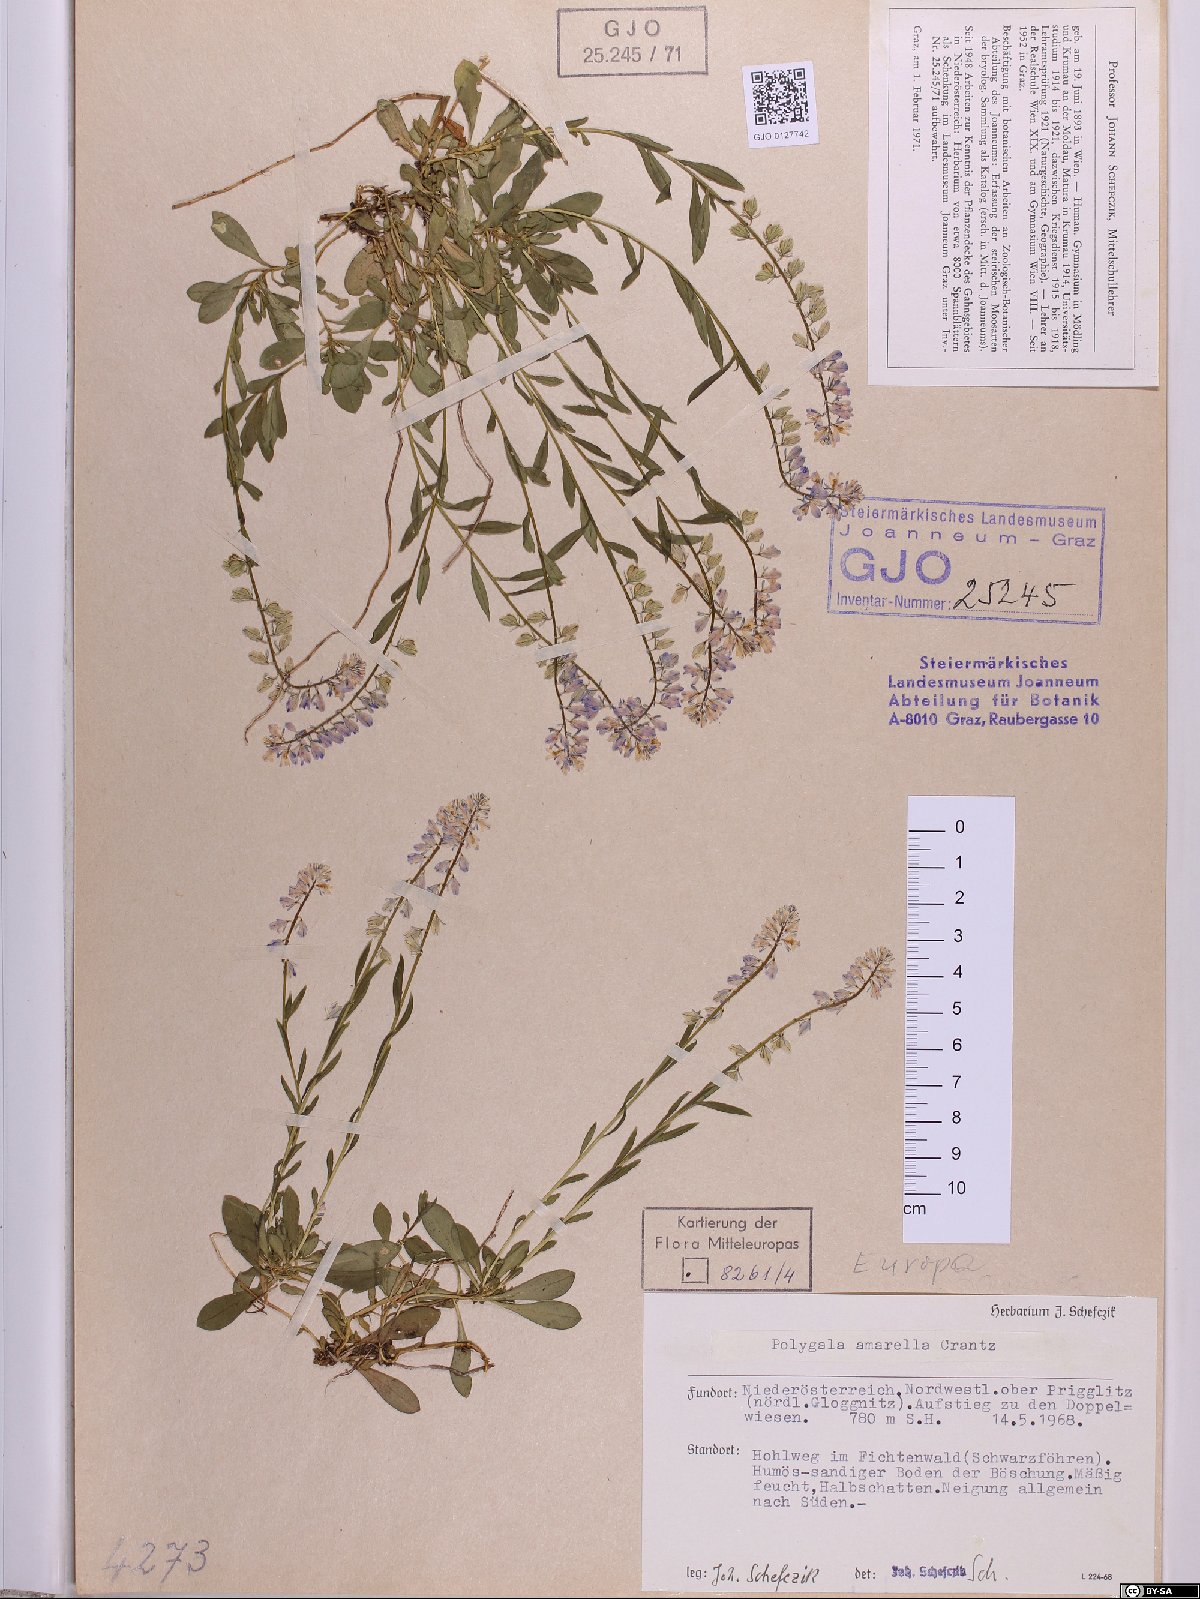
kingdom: Plantae
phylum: Tracheophyta
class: Magnoliopsida
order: Fabales
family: Polygalaceae
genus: Polygala
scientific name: Polygala amarella
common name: Dwarf milkwort
